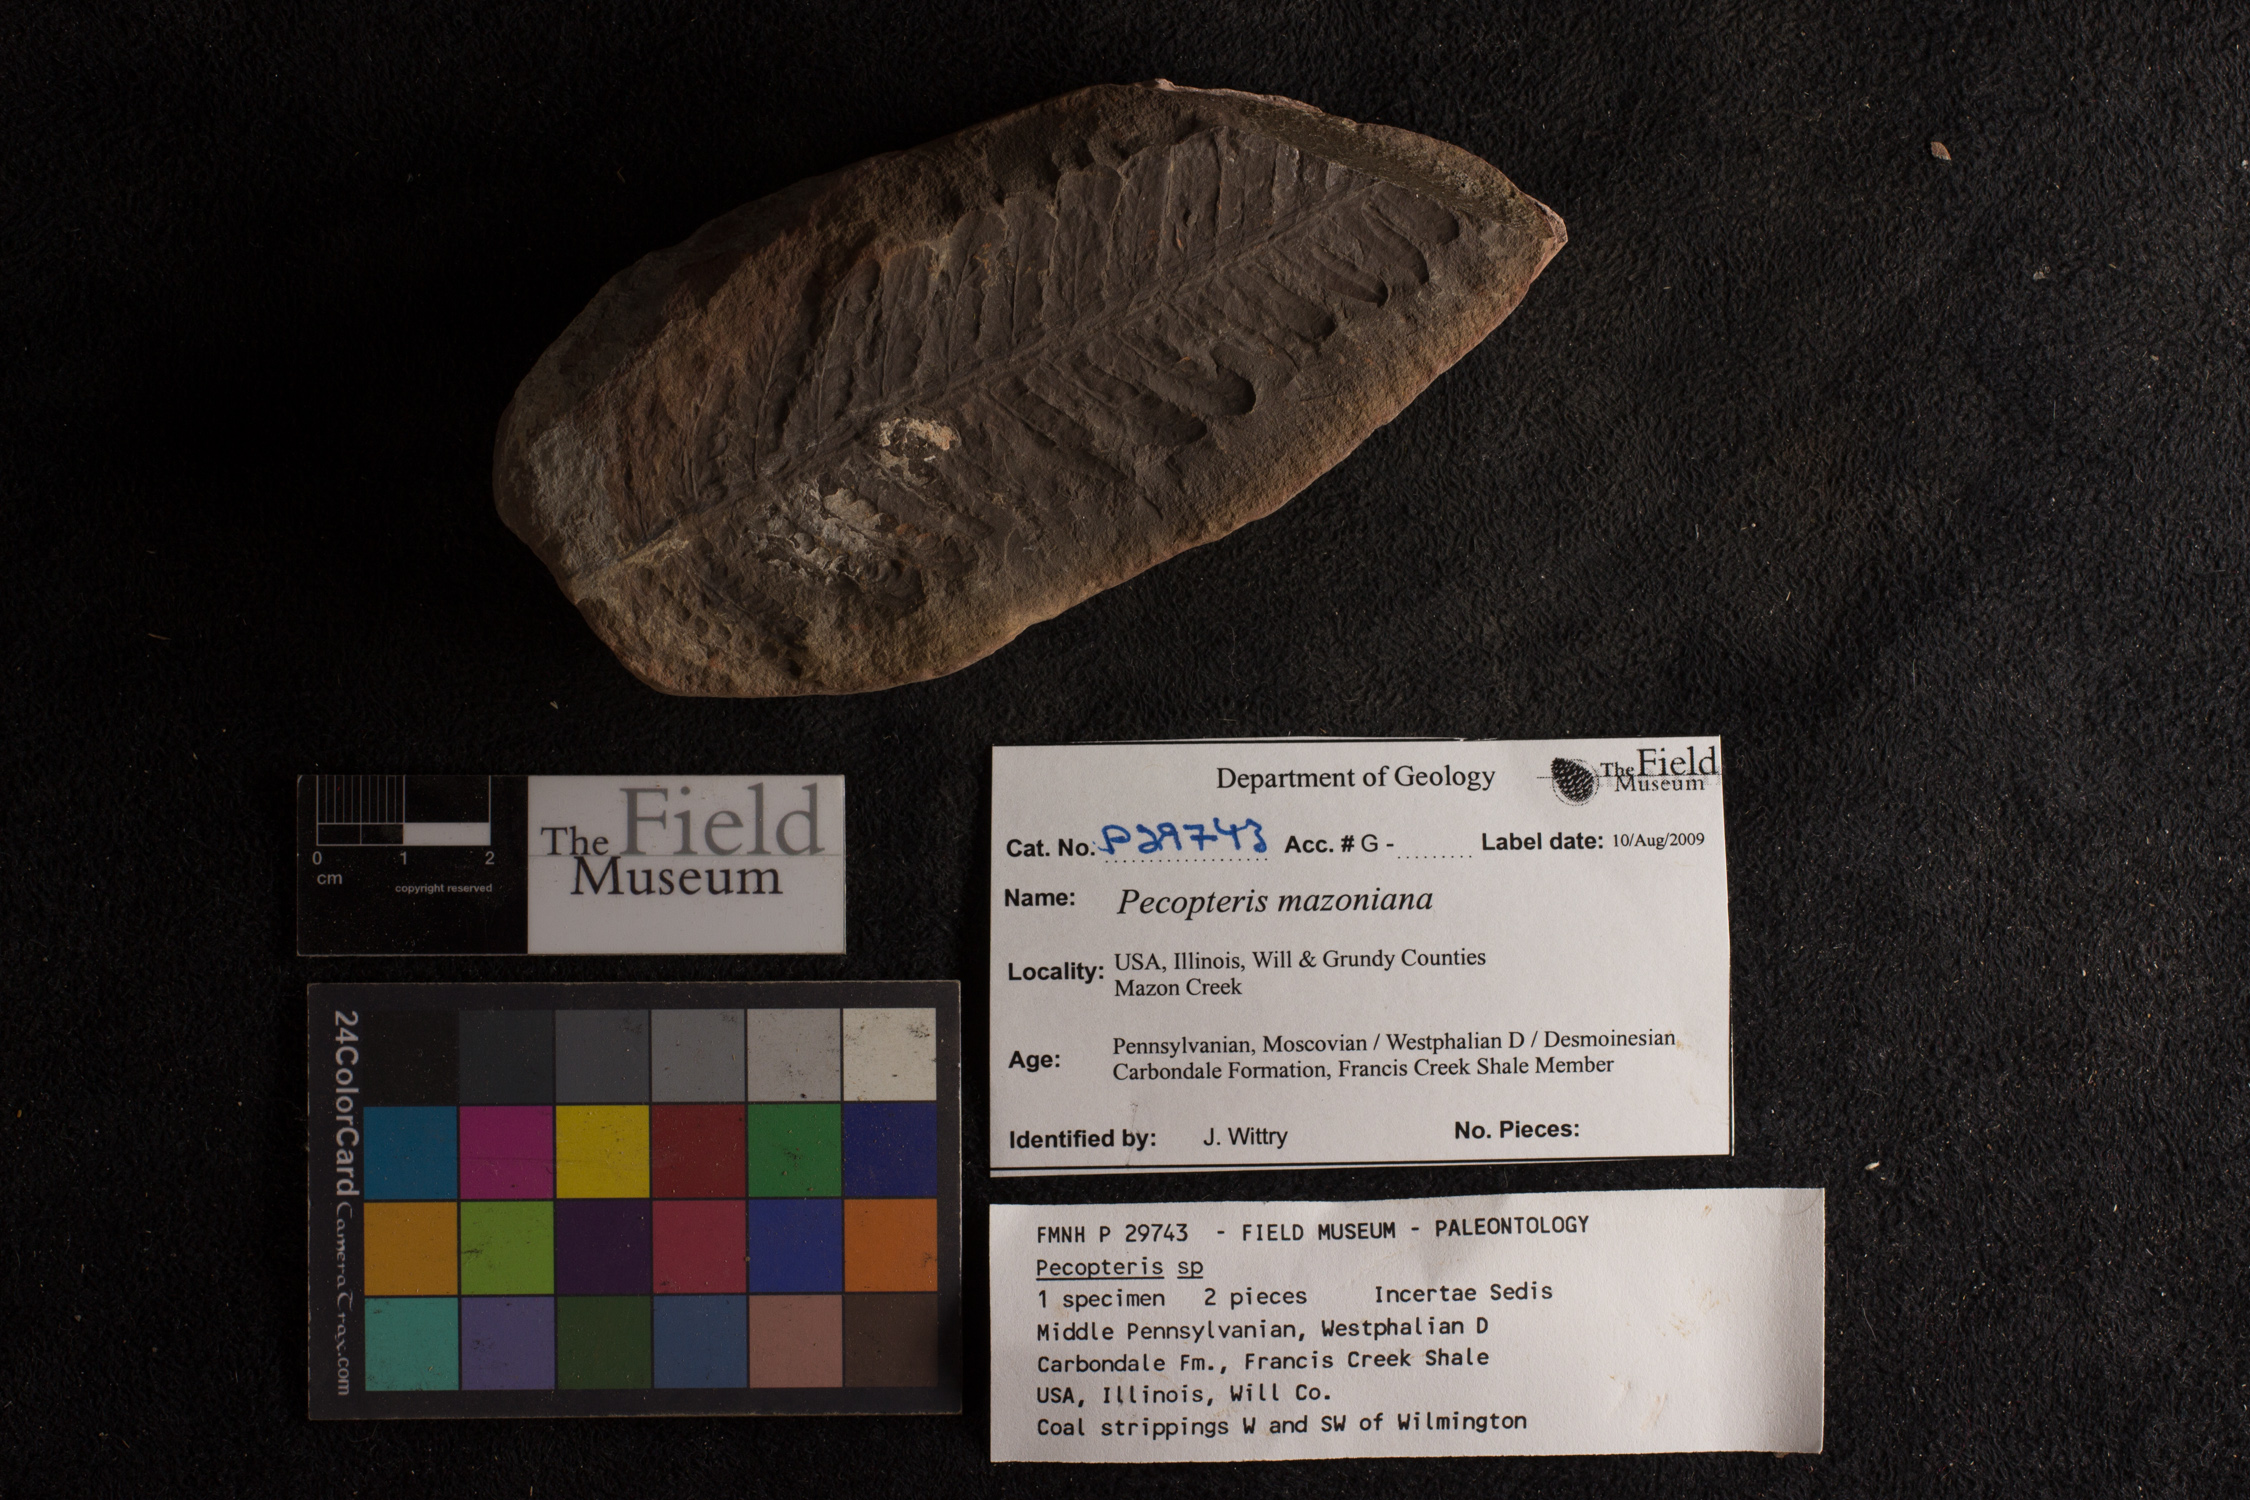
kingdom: Plantae
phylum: Tracheophyta
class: Polypodiopsida
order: Marattiales
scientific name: Marattiales
